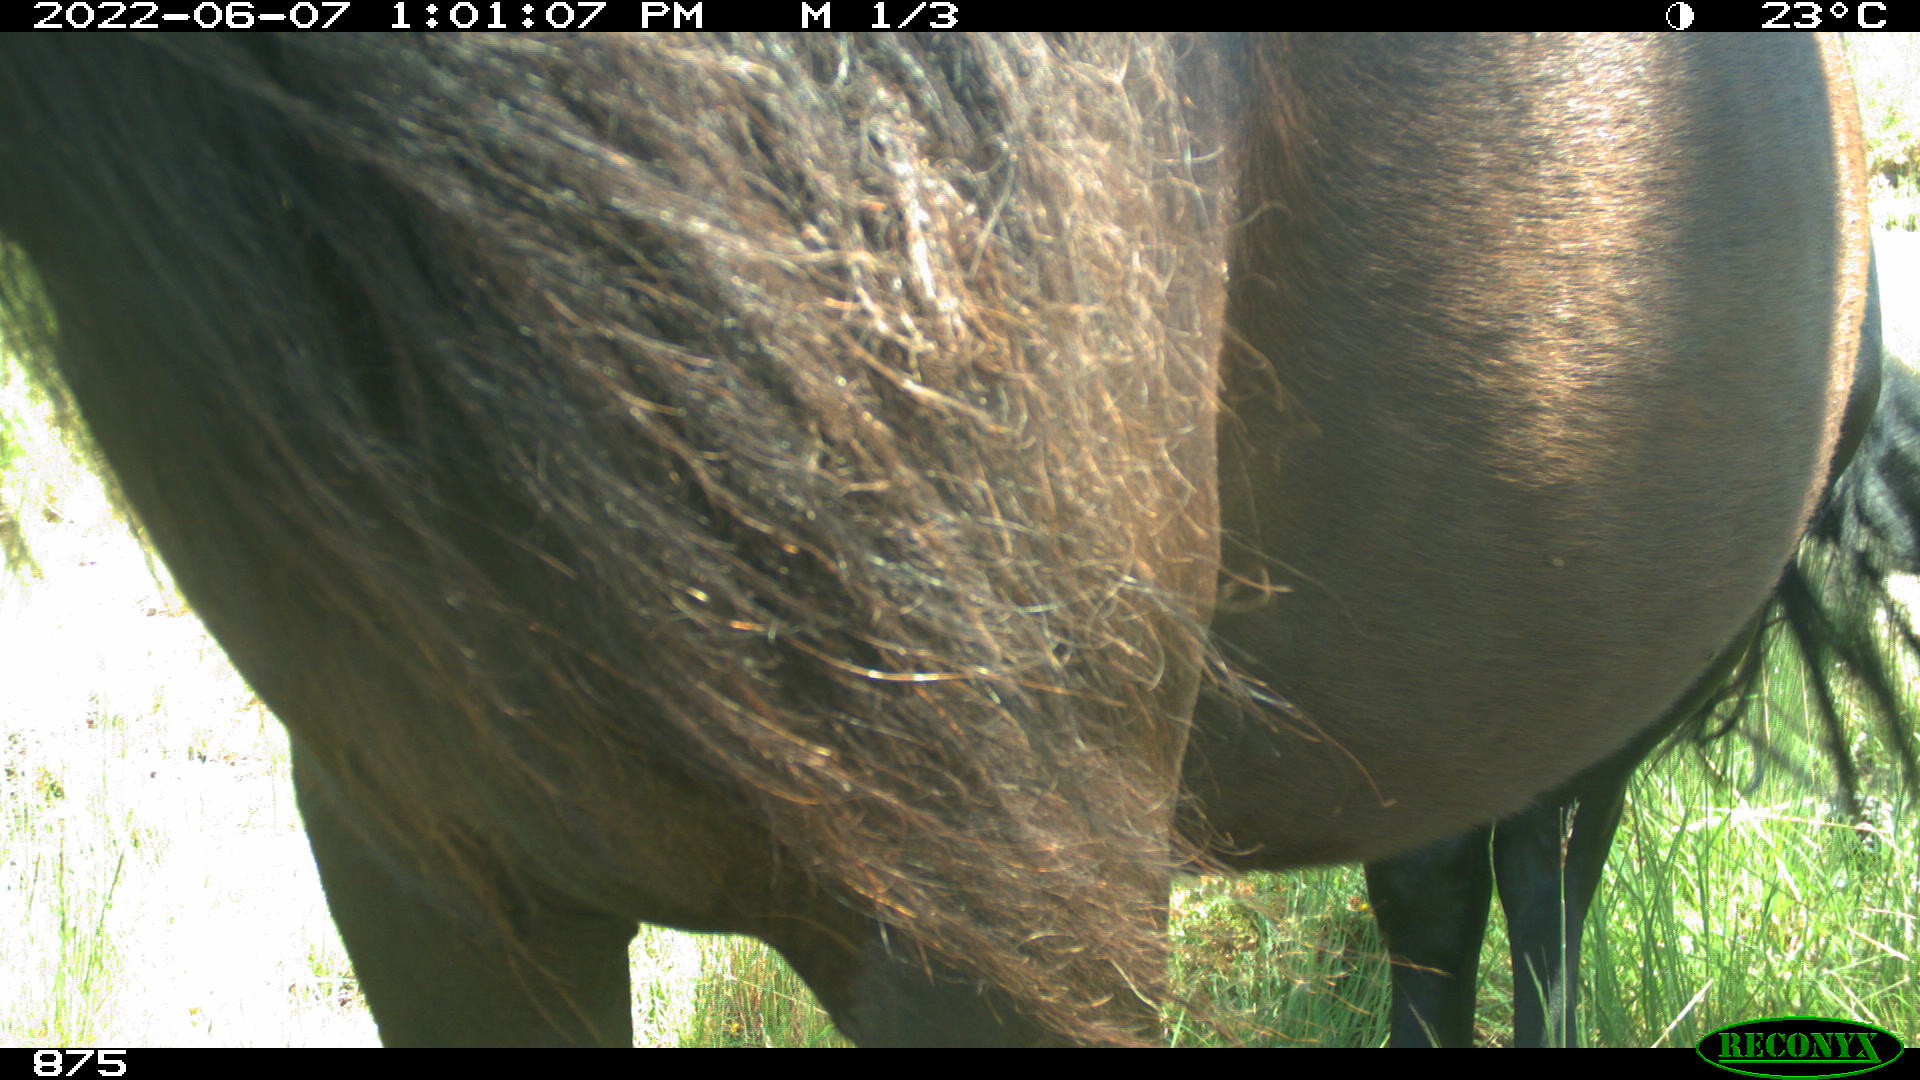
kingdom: Animalia
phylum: Chordata
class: Mammalia
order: Perissodactyla
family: Equidae
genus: Equus
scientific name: Equus caballus
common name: Horse
